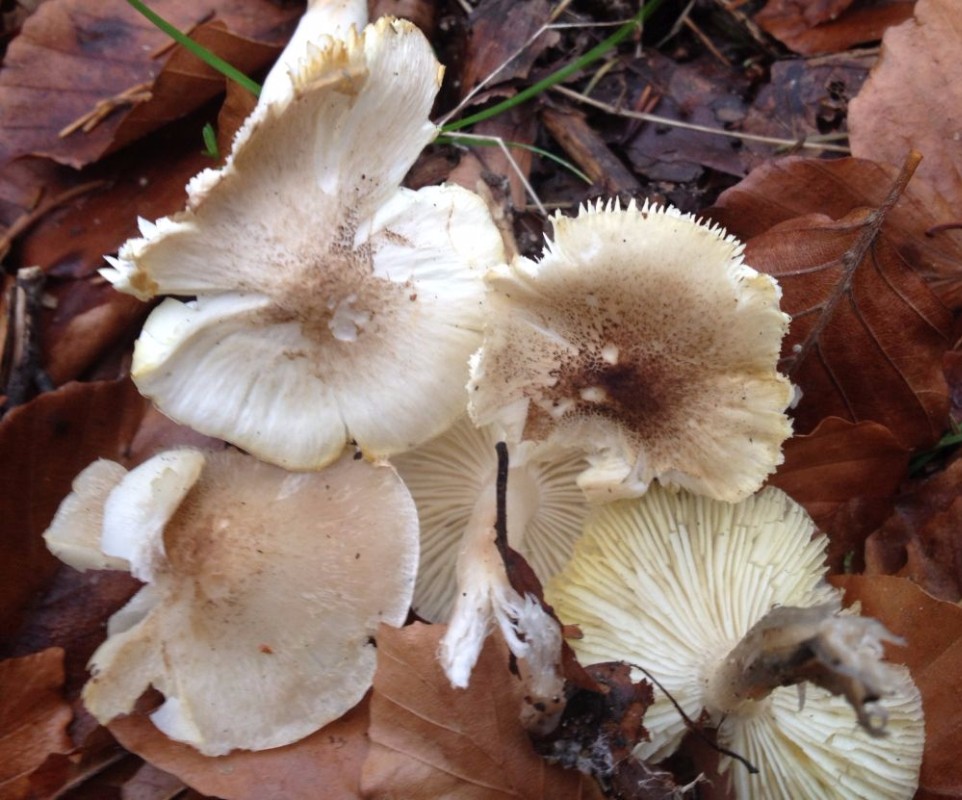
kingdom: Fungi
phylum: Basidiomycota
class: Agaricomycetes
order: Agaricales
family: Tricholomataceae
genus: Tricholoma
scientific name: Tricholoma scalpturatum
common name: gulplettet ridderhat
